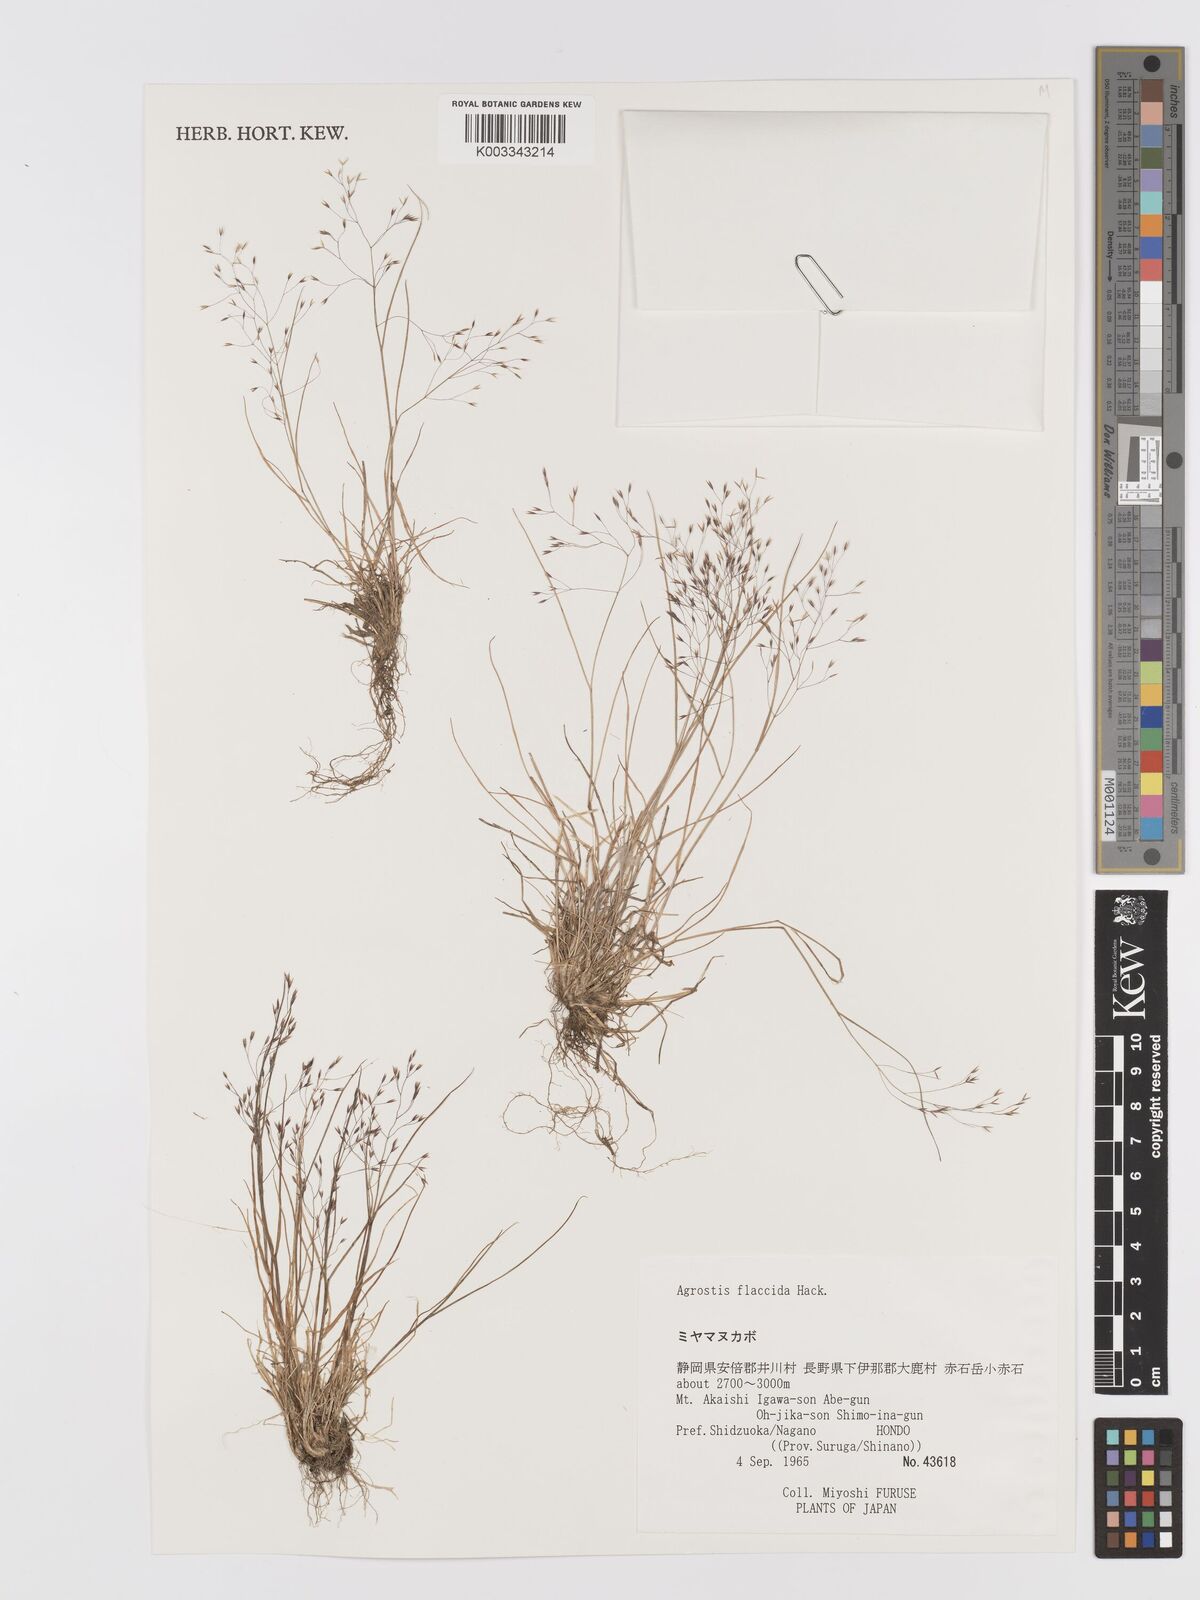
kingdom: Plantae
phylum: Tracheophyta
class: Liliopsida
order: Poales
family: Poaceae
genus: Agrostis
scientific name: Agrostis flaccida
